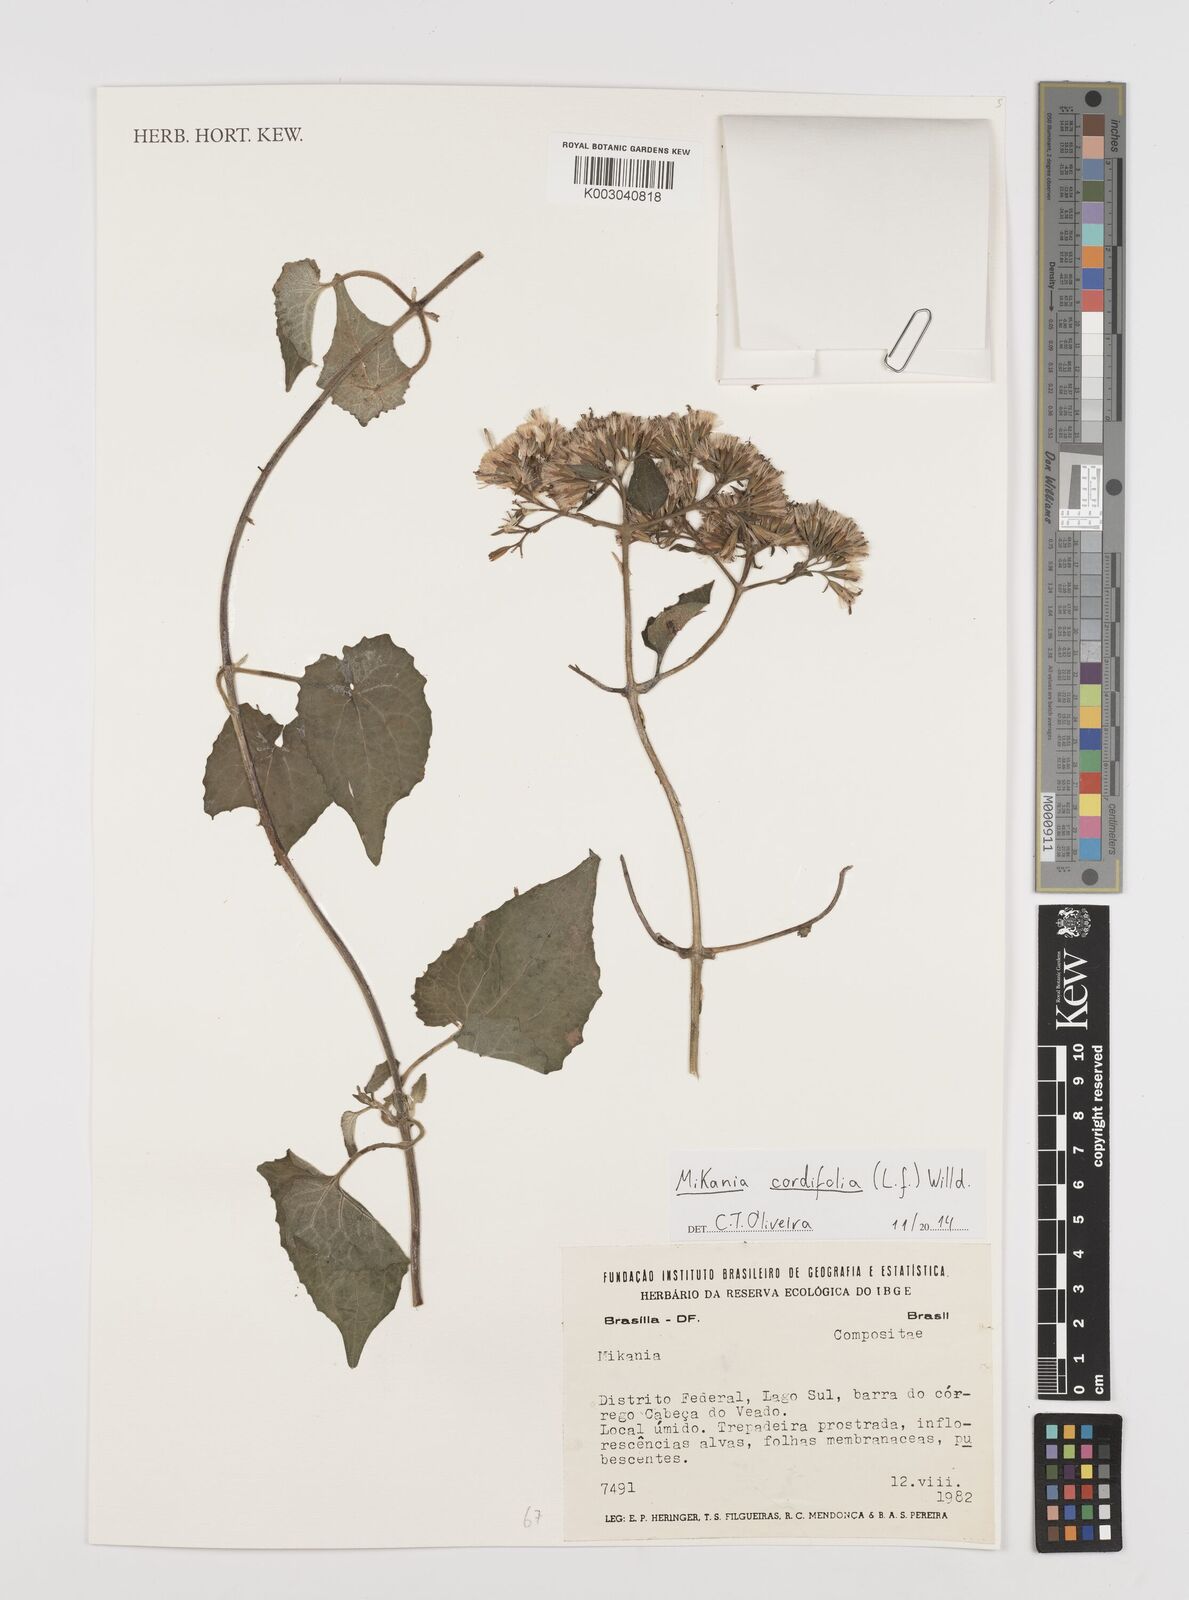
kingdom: Plantae
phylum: Tracheophyta
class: Magnoliopsida
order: Asterales
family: Asteraceae
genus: Mikania
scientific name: Mikania cordifolia
